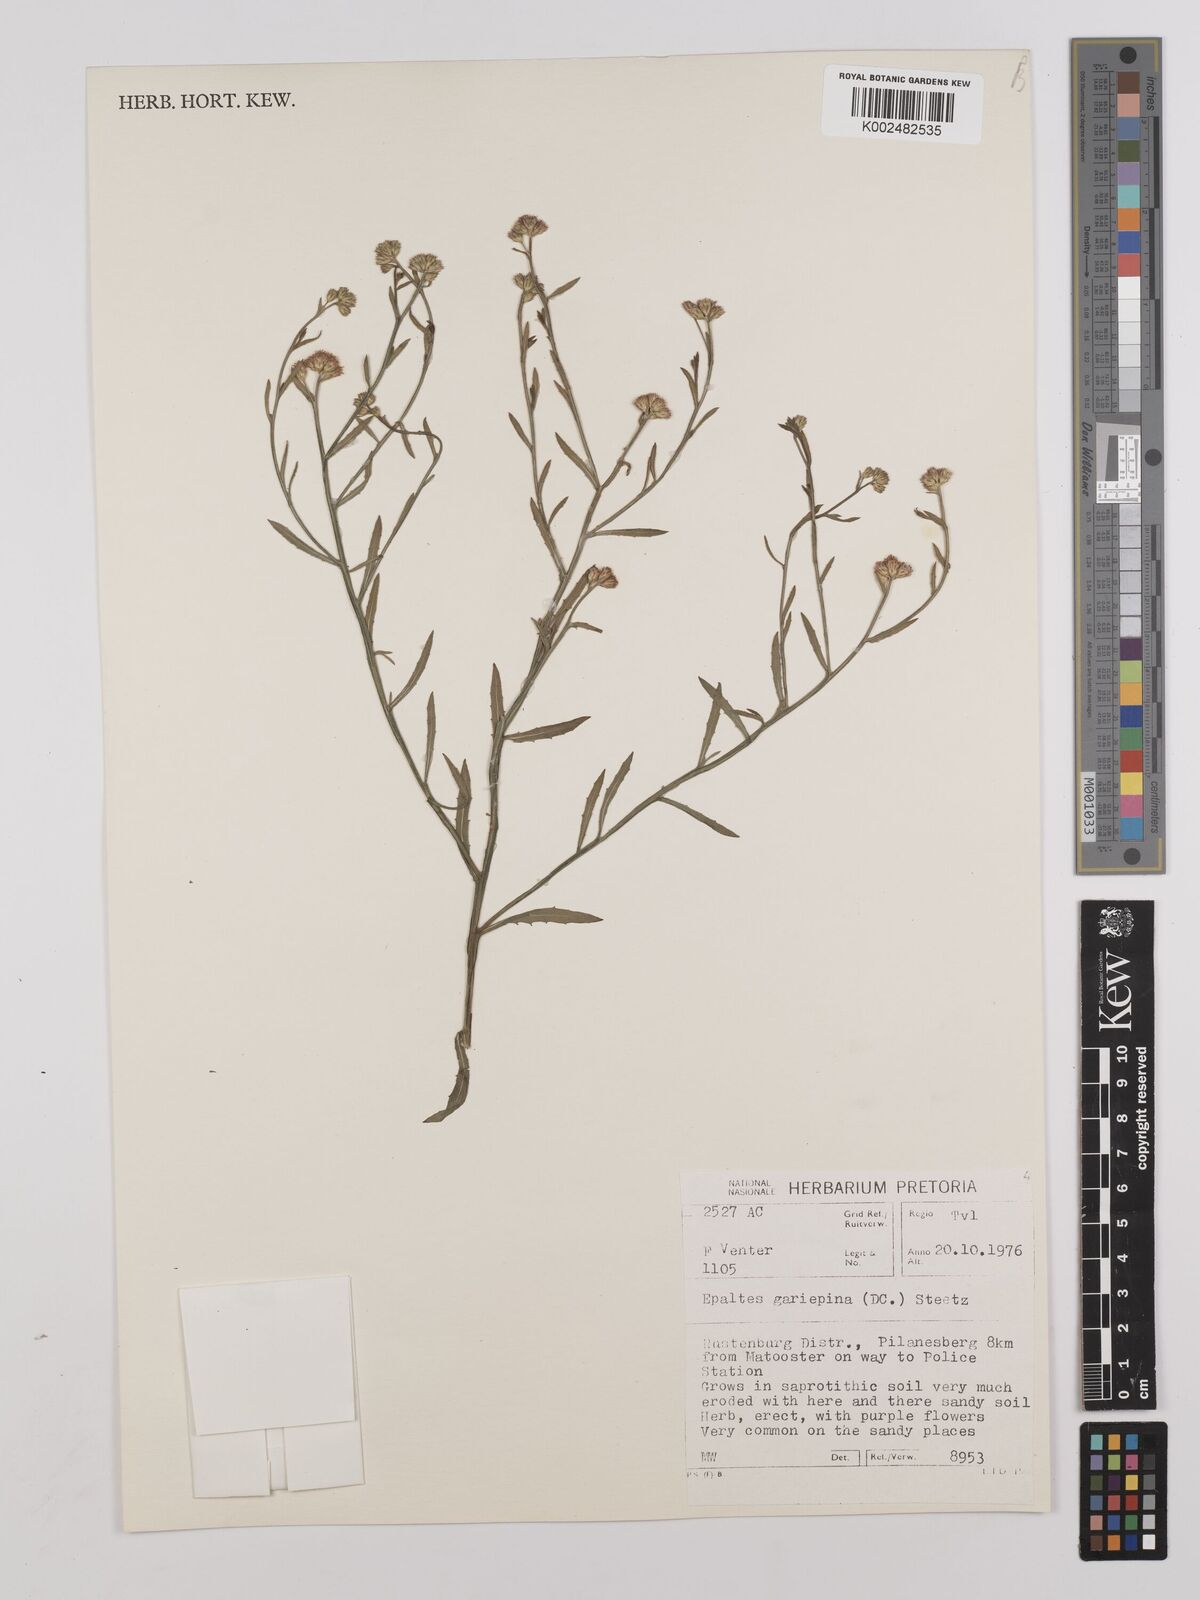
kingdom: Plantae
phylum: Tracheophyta
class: Magnoliopsida
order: Asterales
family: Asteraceae
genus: Litogyne
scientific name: Litogyne gariepina
